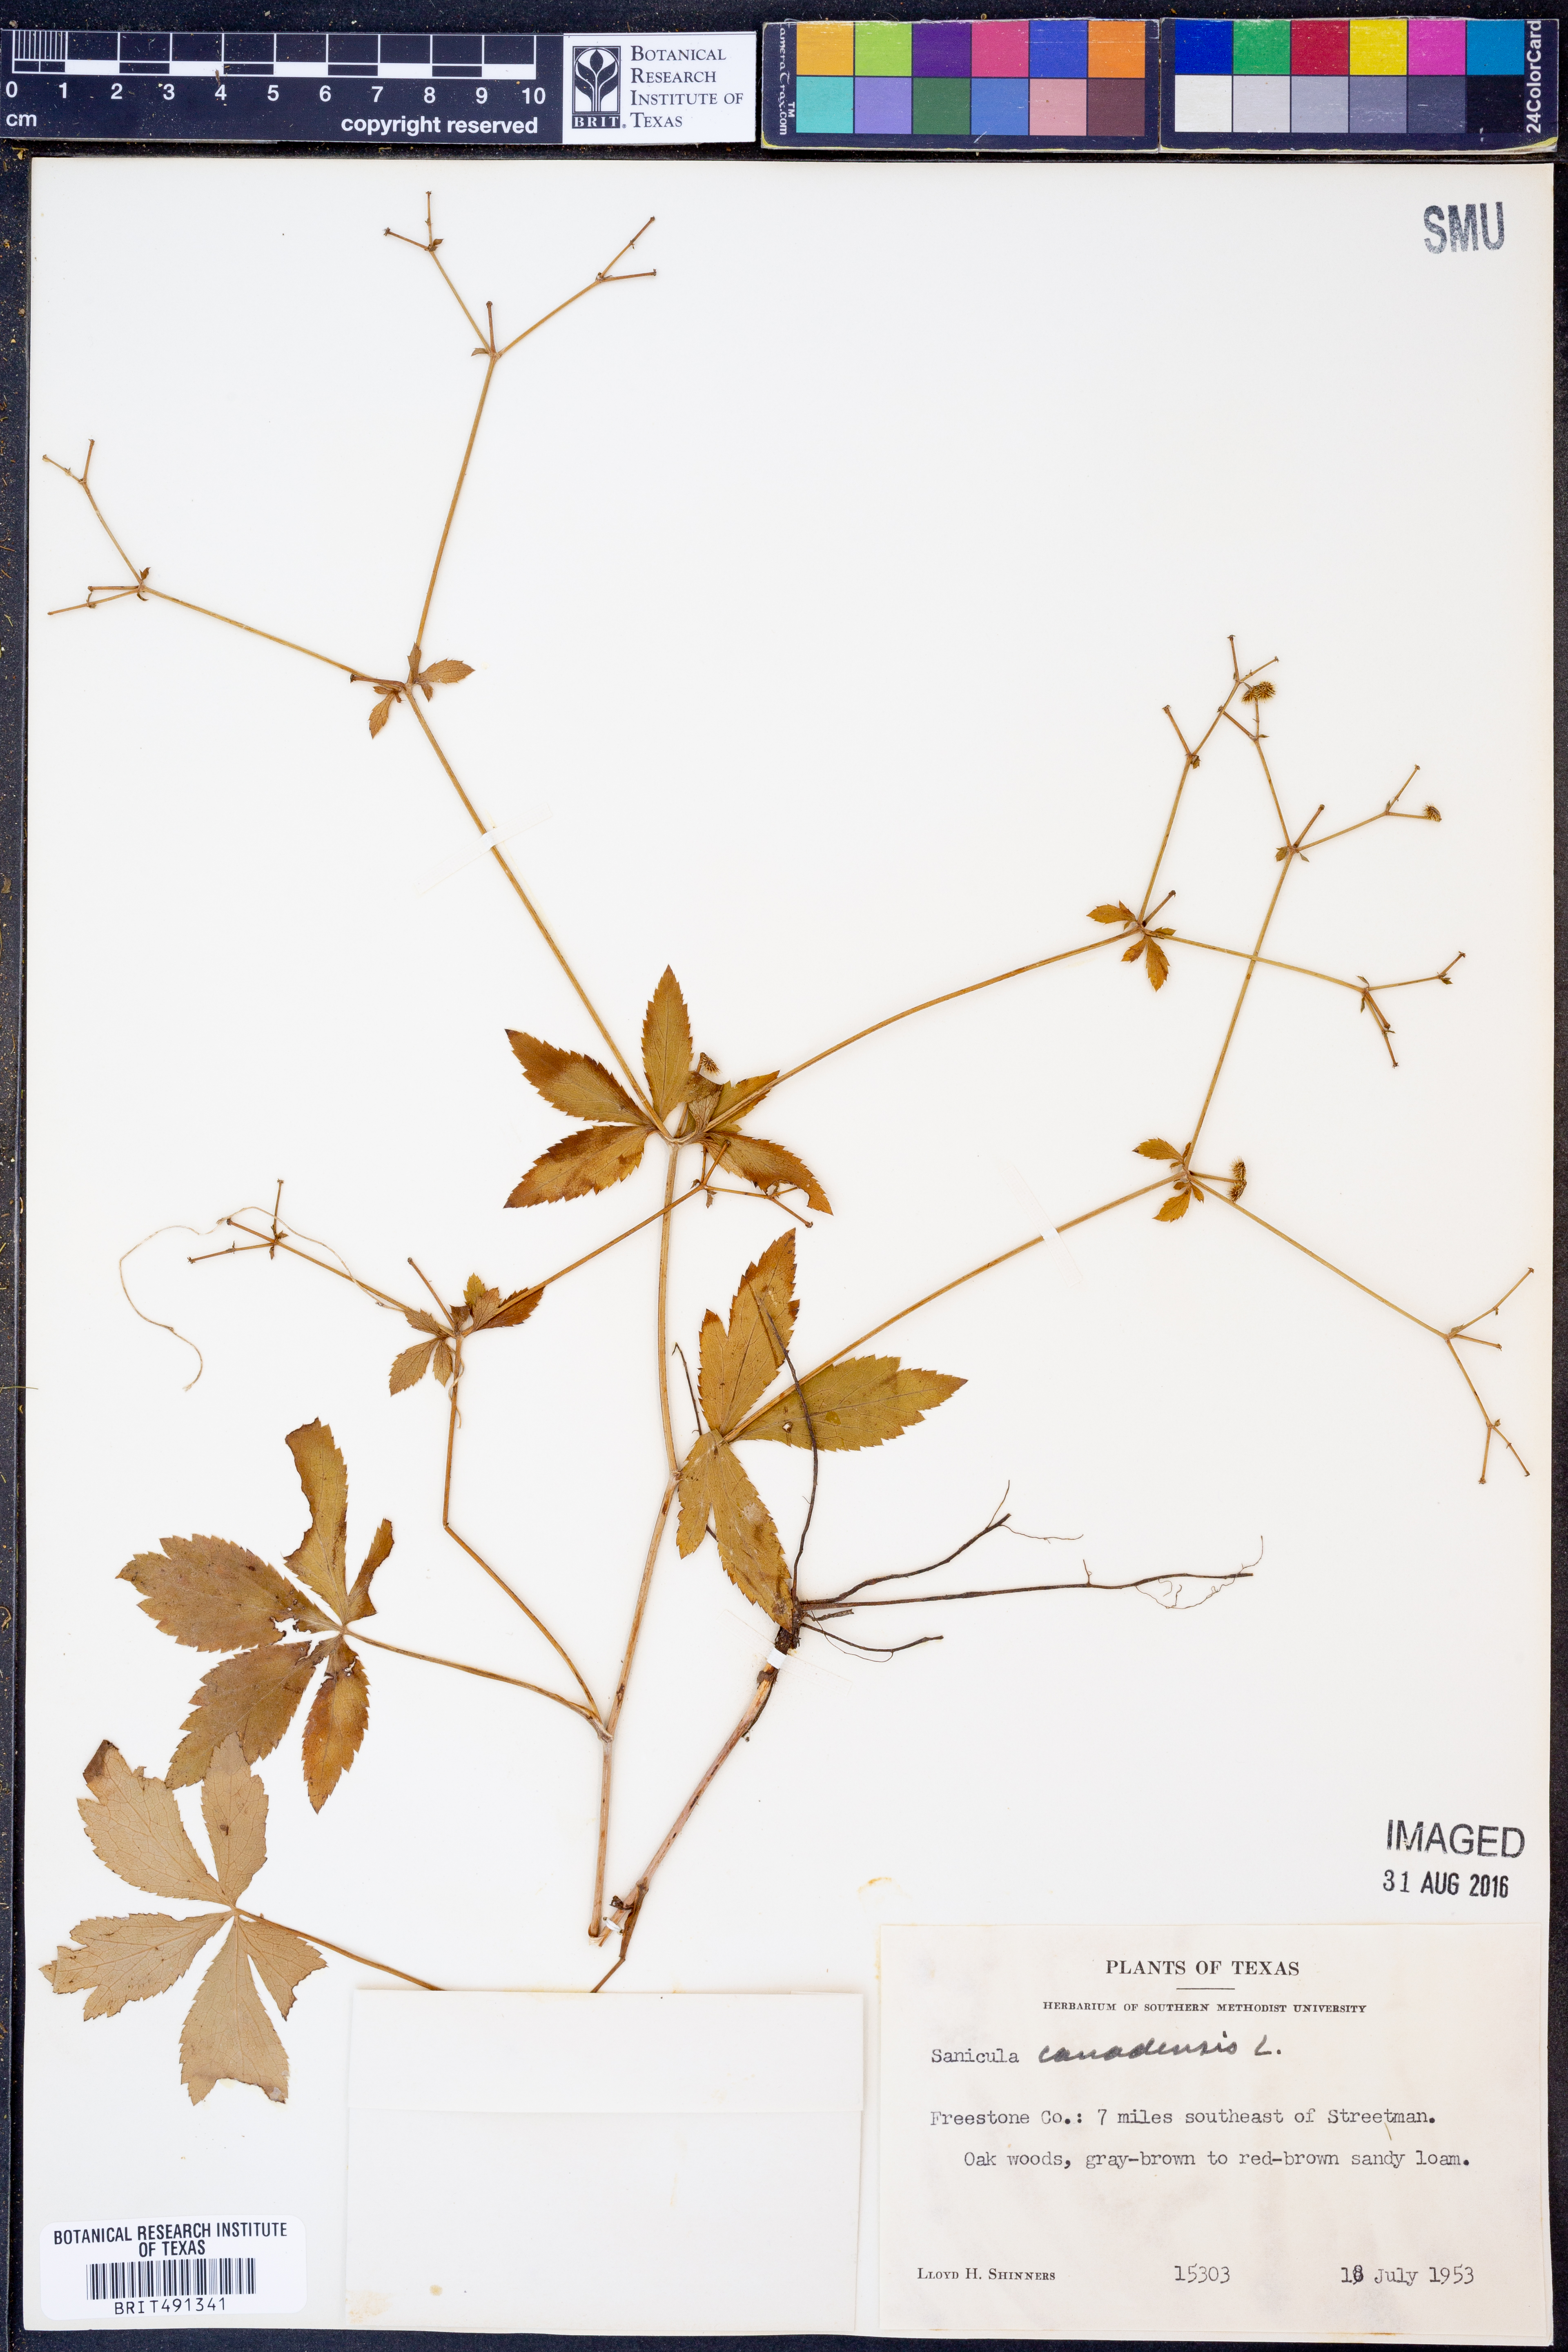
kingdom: Plantae
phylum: Tracheophyta
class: Magnoliopsida
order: Apiales
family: Apiaceae
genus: Sanicula
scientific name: Sanicula canadensis
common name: Canada sanicle
